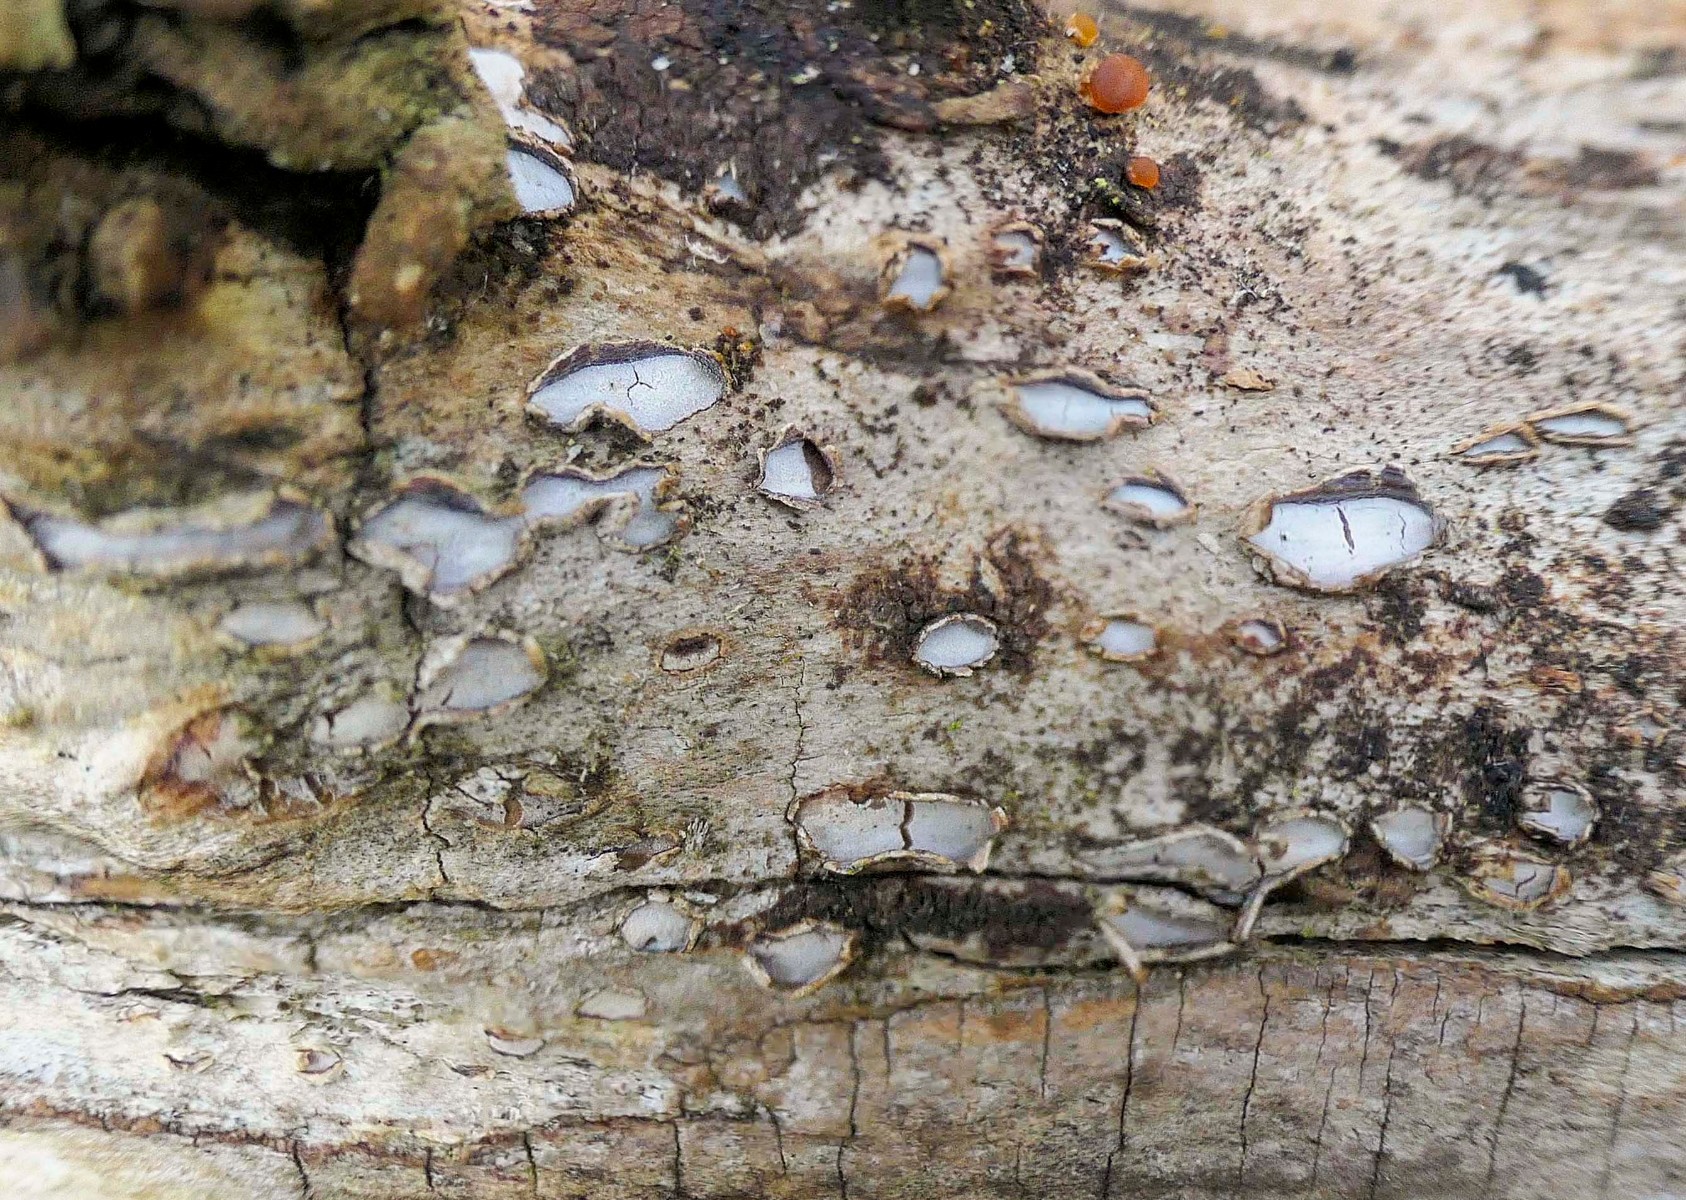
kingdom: Fungi
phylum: Ascomycota
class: Leotiomycetes
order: Chaetomellales
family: Marthamycetaceae
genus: Propolis
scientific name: Propolis farinosa
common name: almindelig vedsprængerskive
